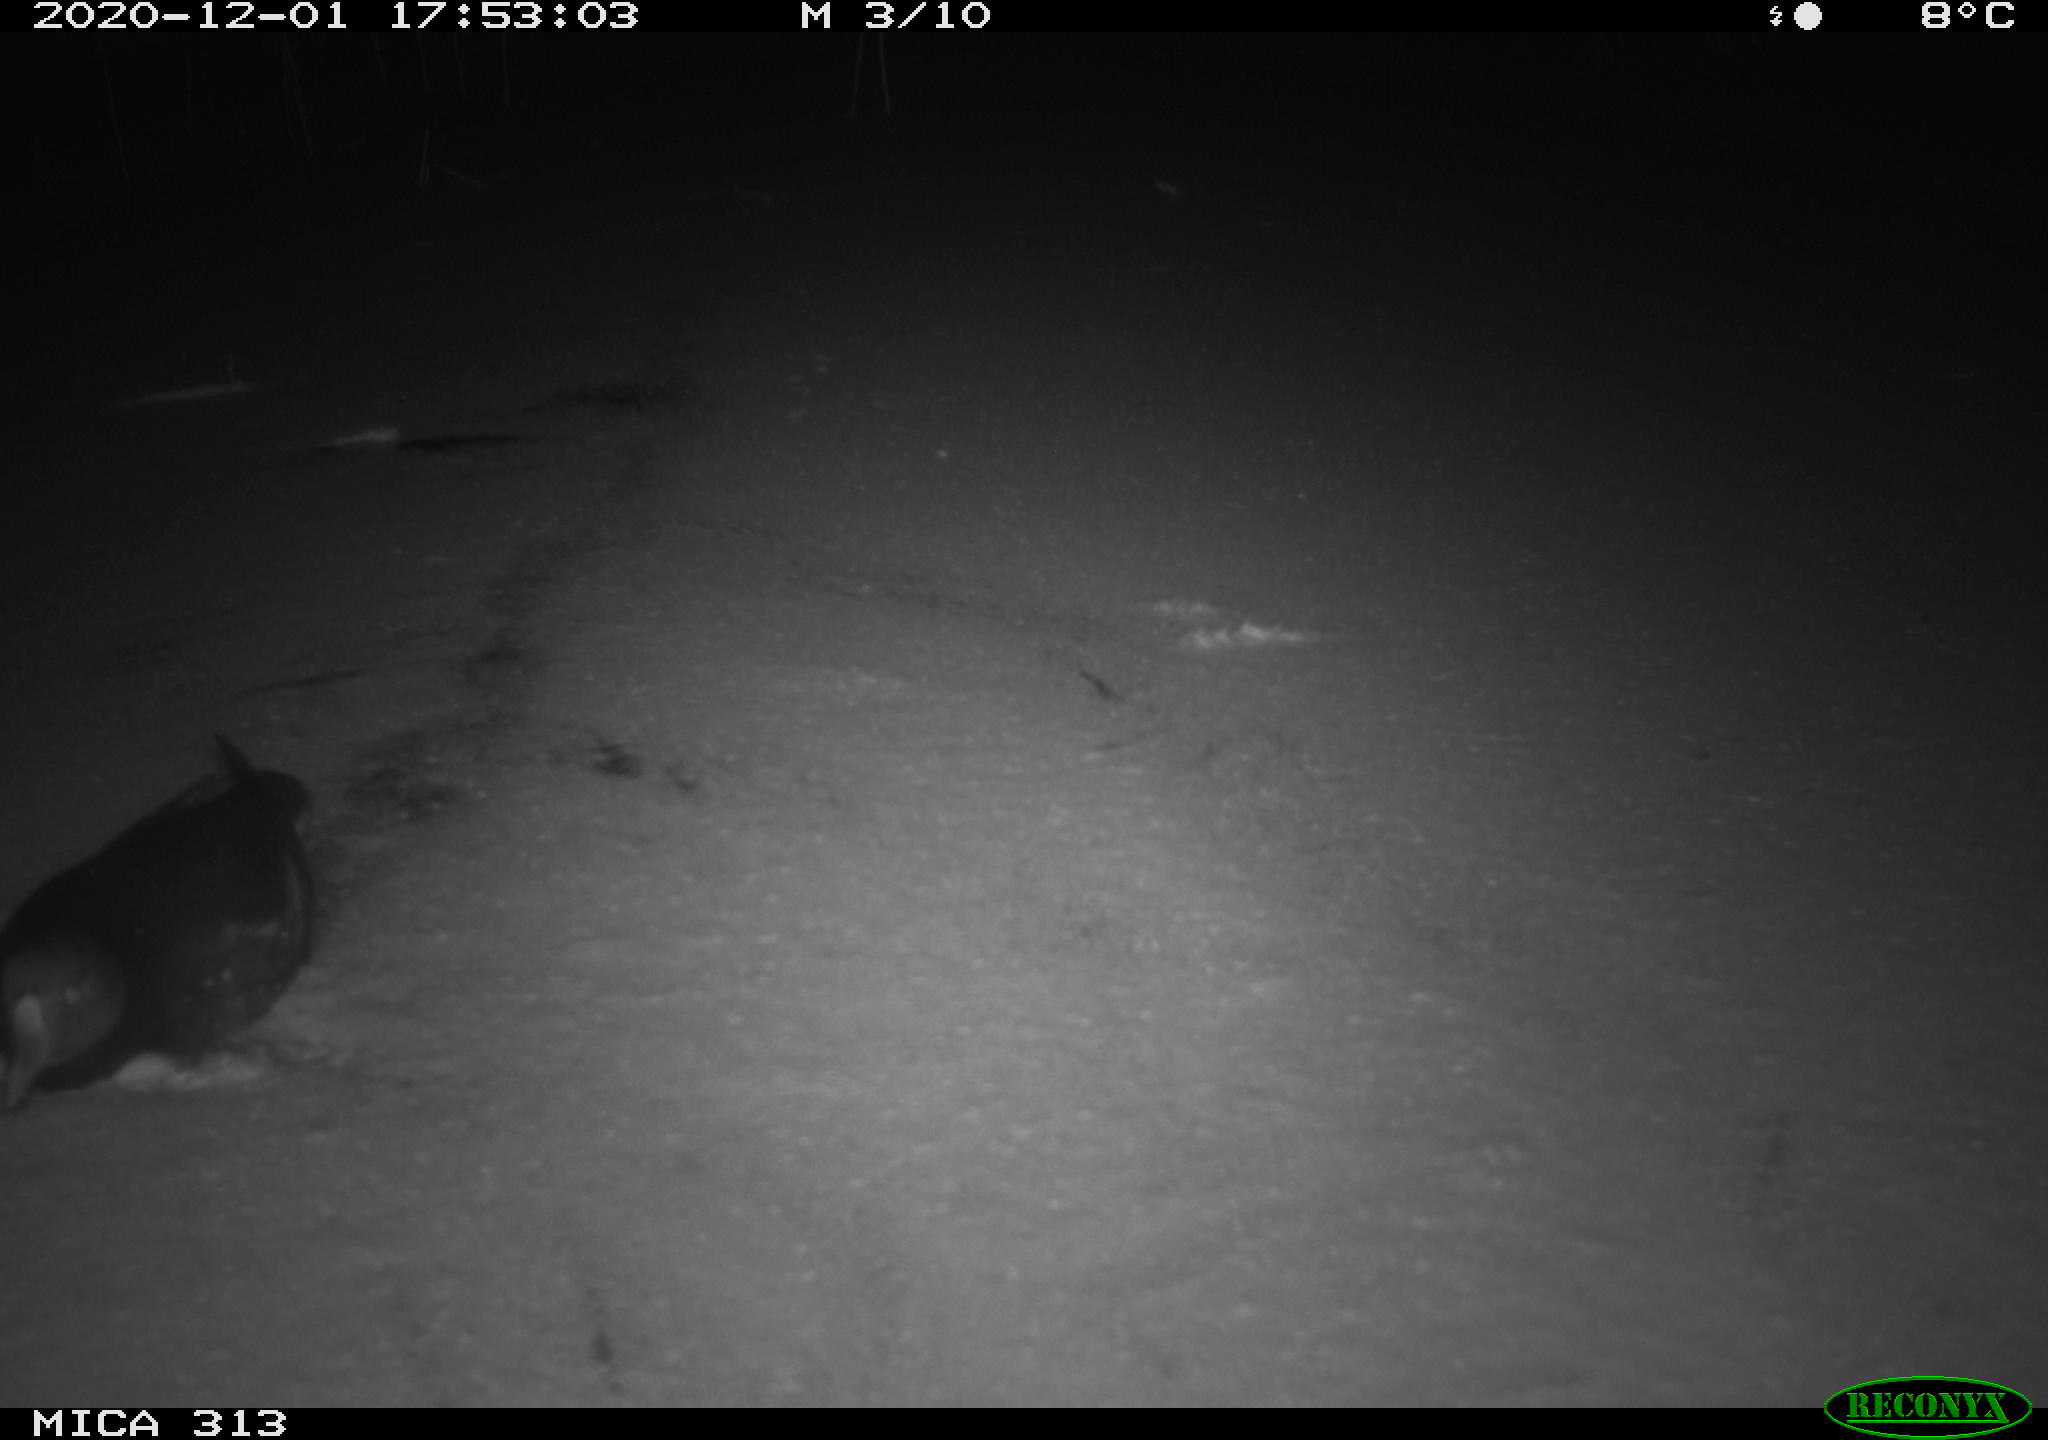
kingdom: Animalia
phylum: Chordata
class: Aves
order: Gruiformes
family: Rallidae
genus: Gallinula
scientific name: Gallinula chloropus
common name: Common moorhen
